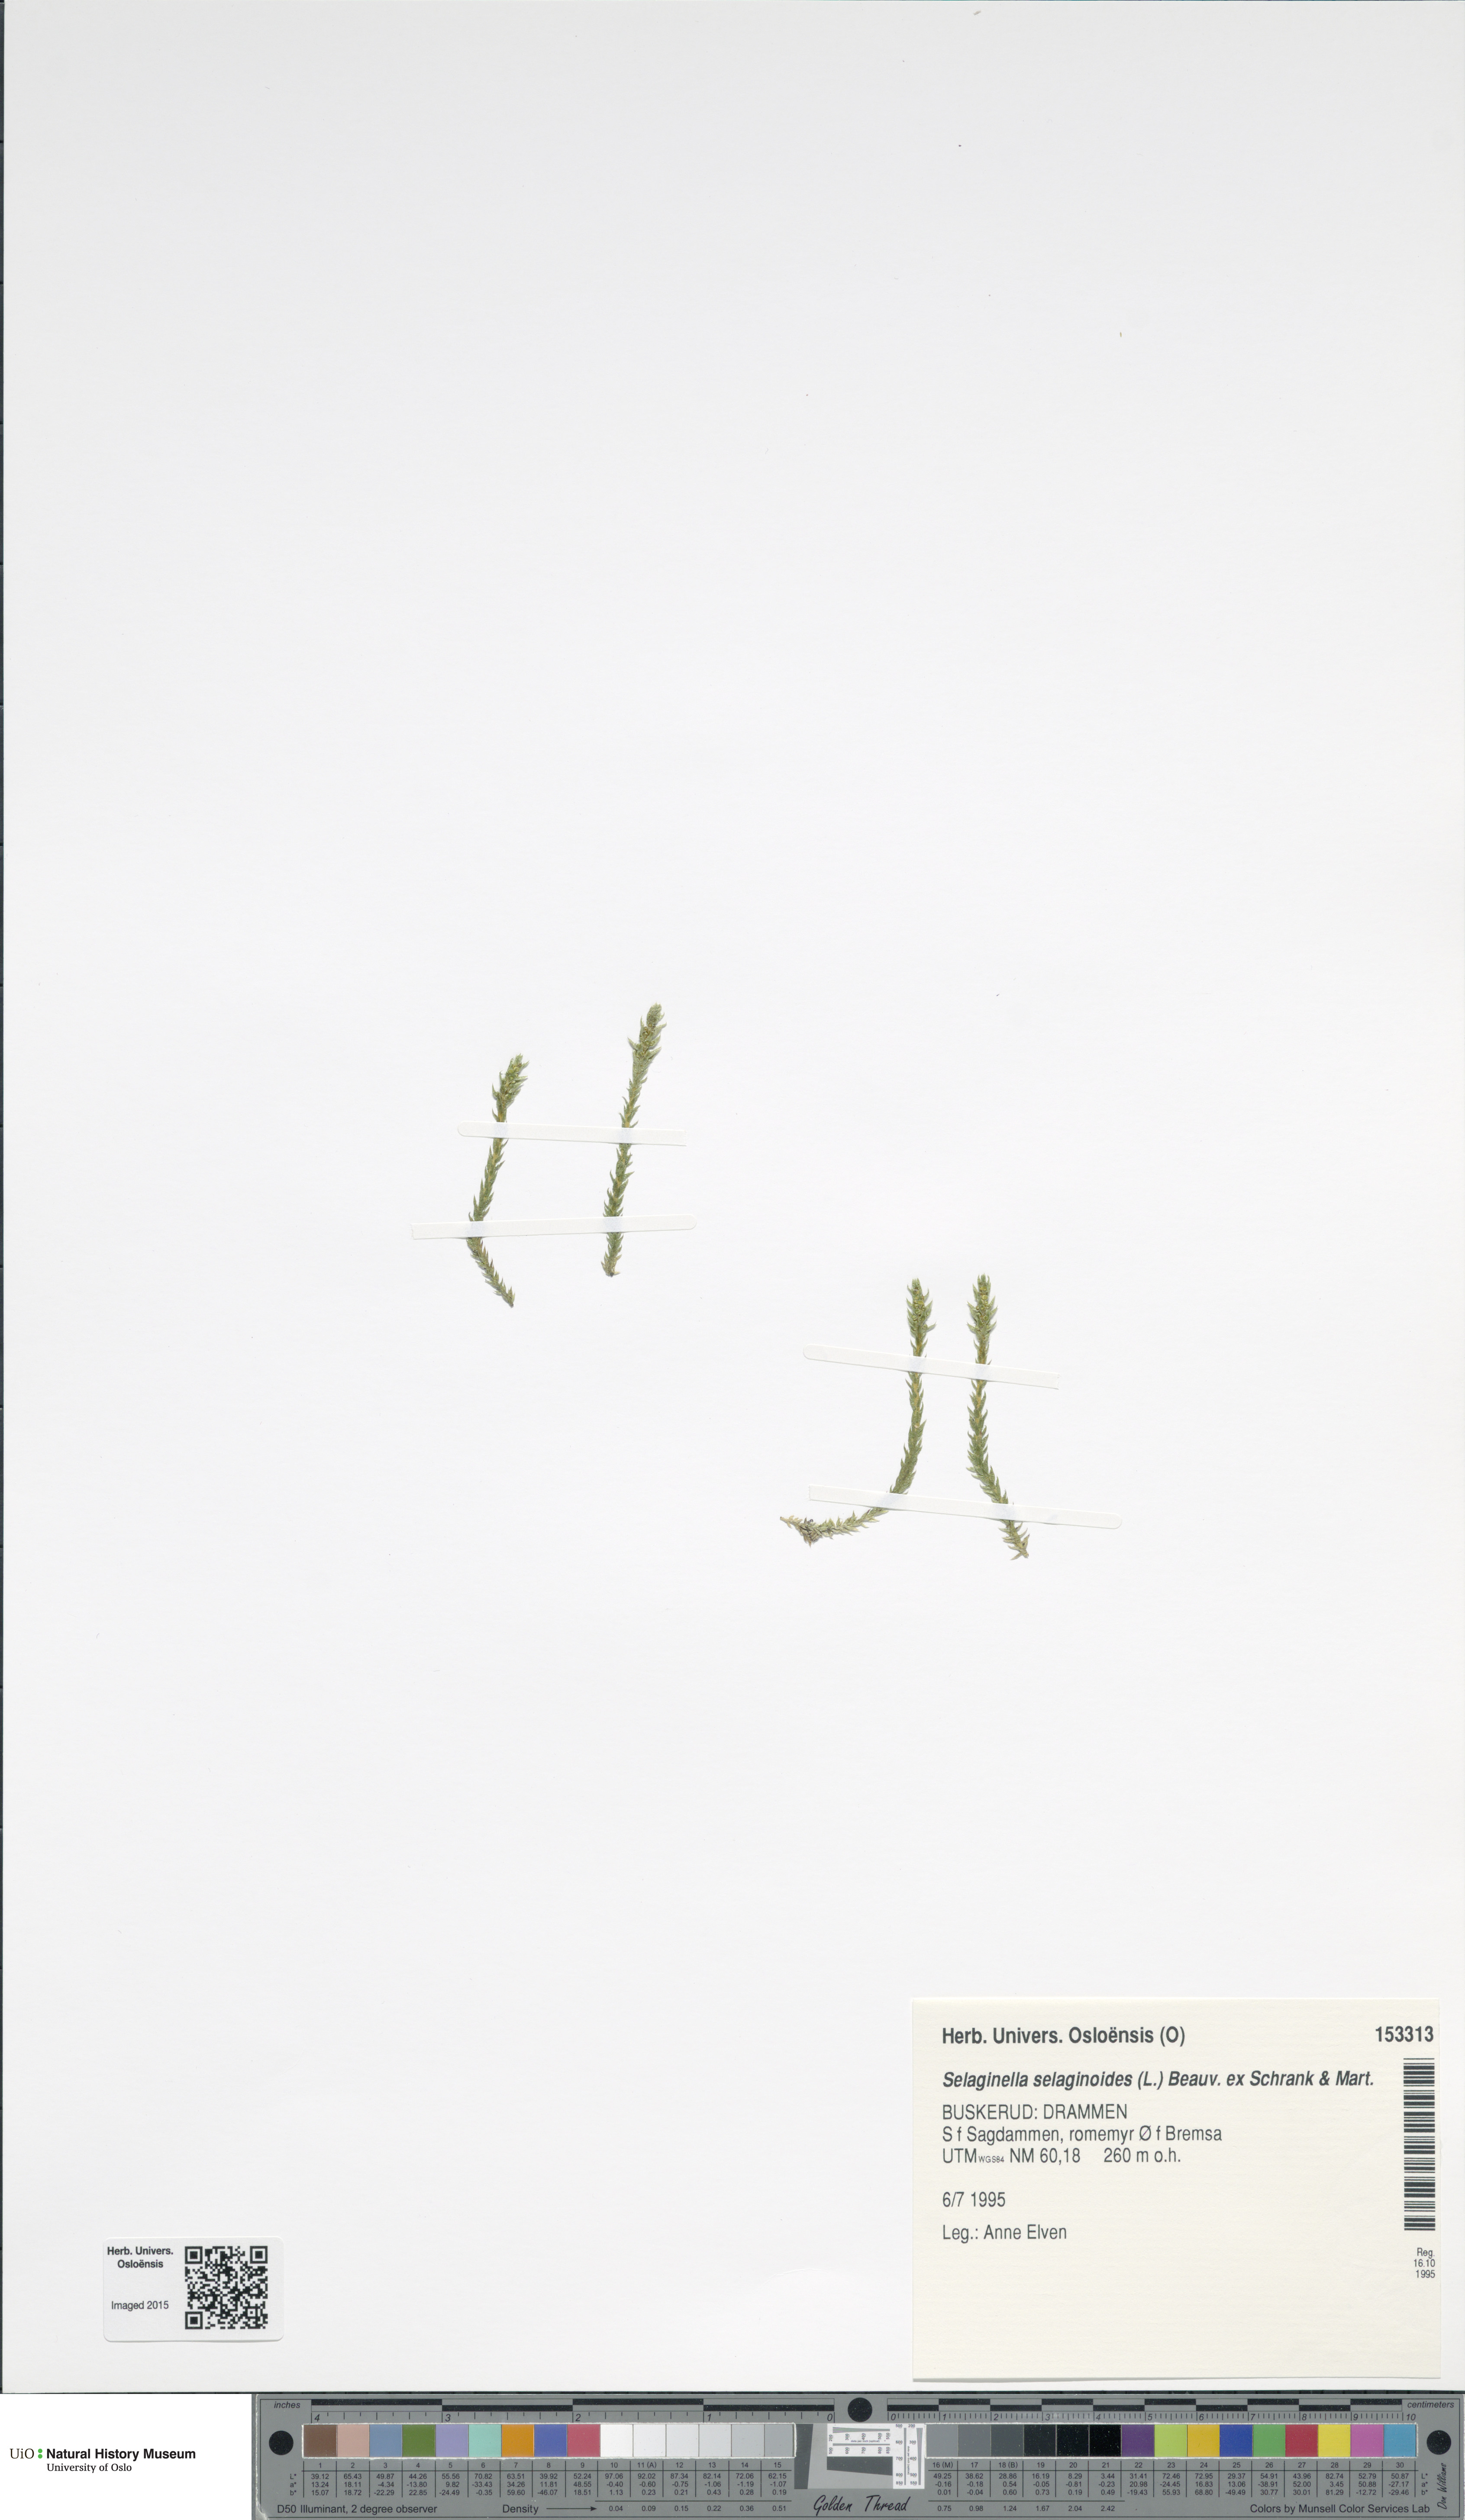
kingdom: Plantae
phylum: Tracheophyta
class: Lycopodiopsida
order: Selaginellales
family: Selaginellaceae
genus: Selaginella
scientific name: Selaginella selaginoides
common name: Prickly mountain-moss
